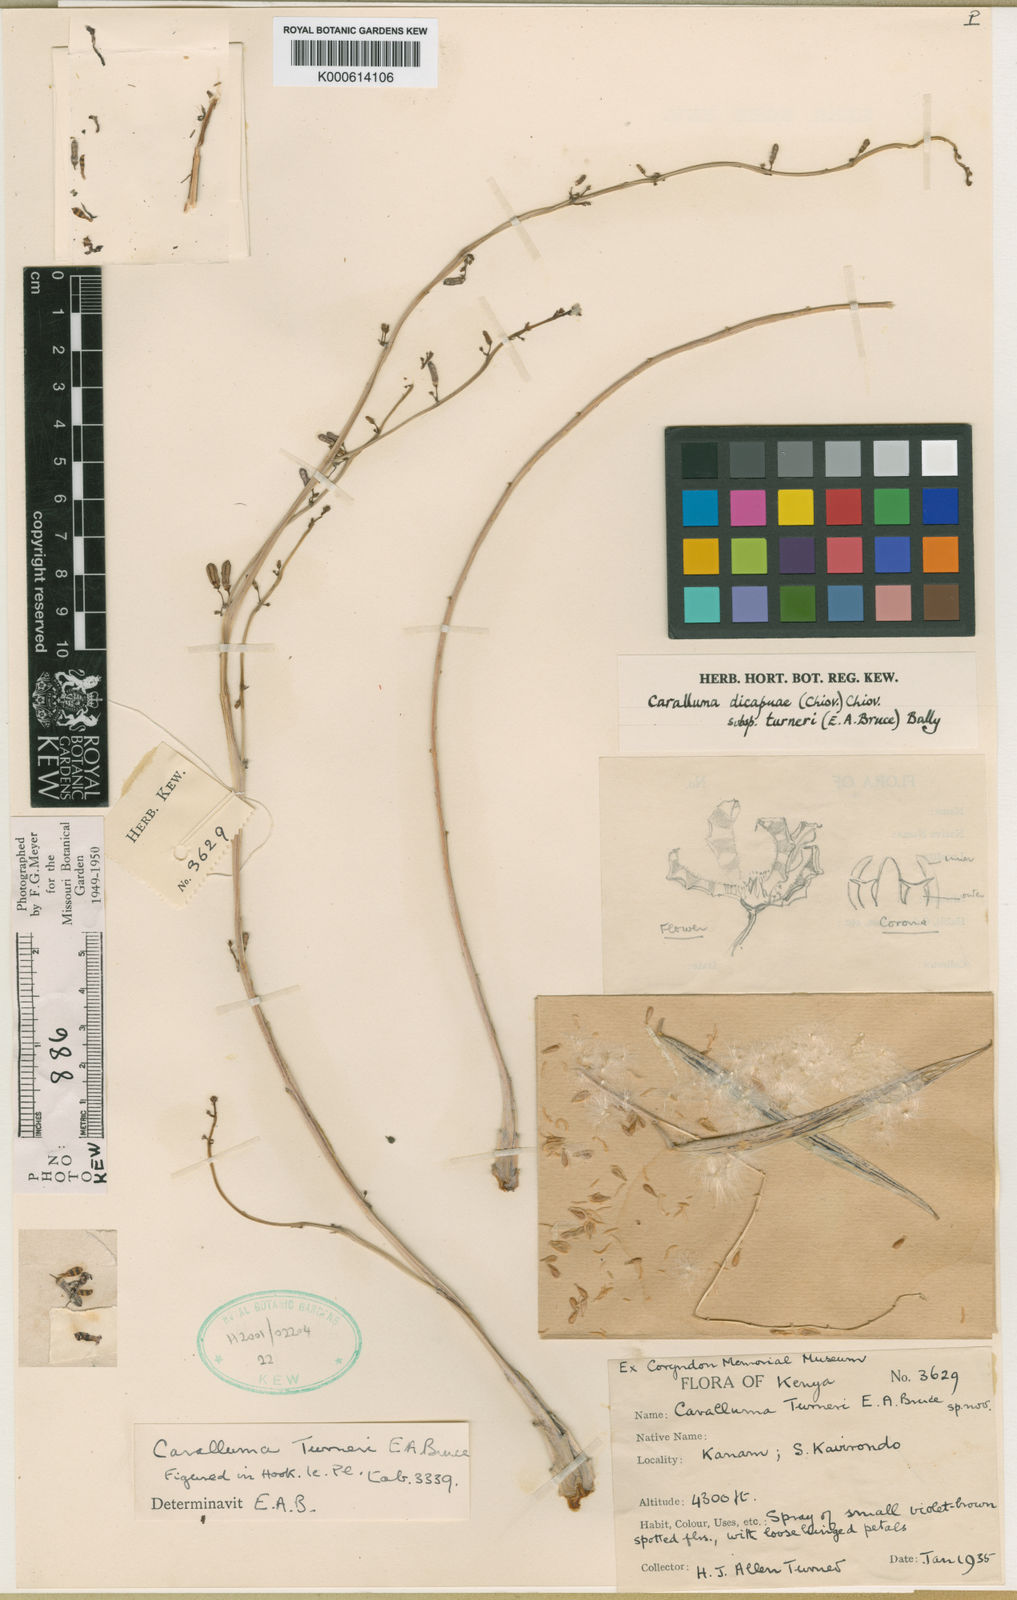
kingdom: Plantae
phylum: Tracheophyta
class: Magnoliopsida
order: Gentianales
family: Apocynaceae
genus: Ceropegia
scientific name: Ceropegia turneri
